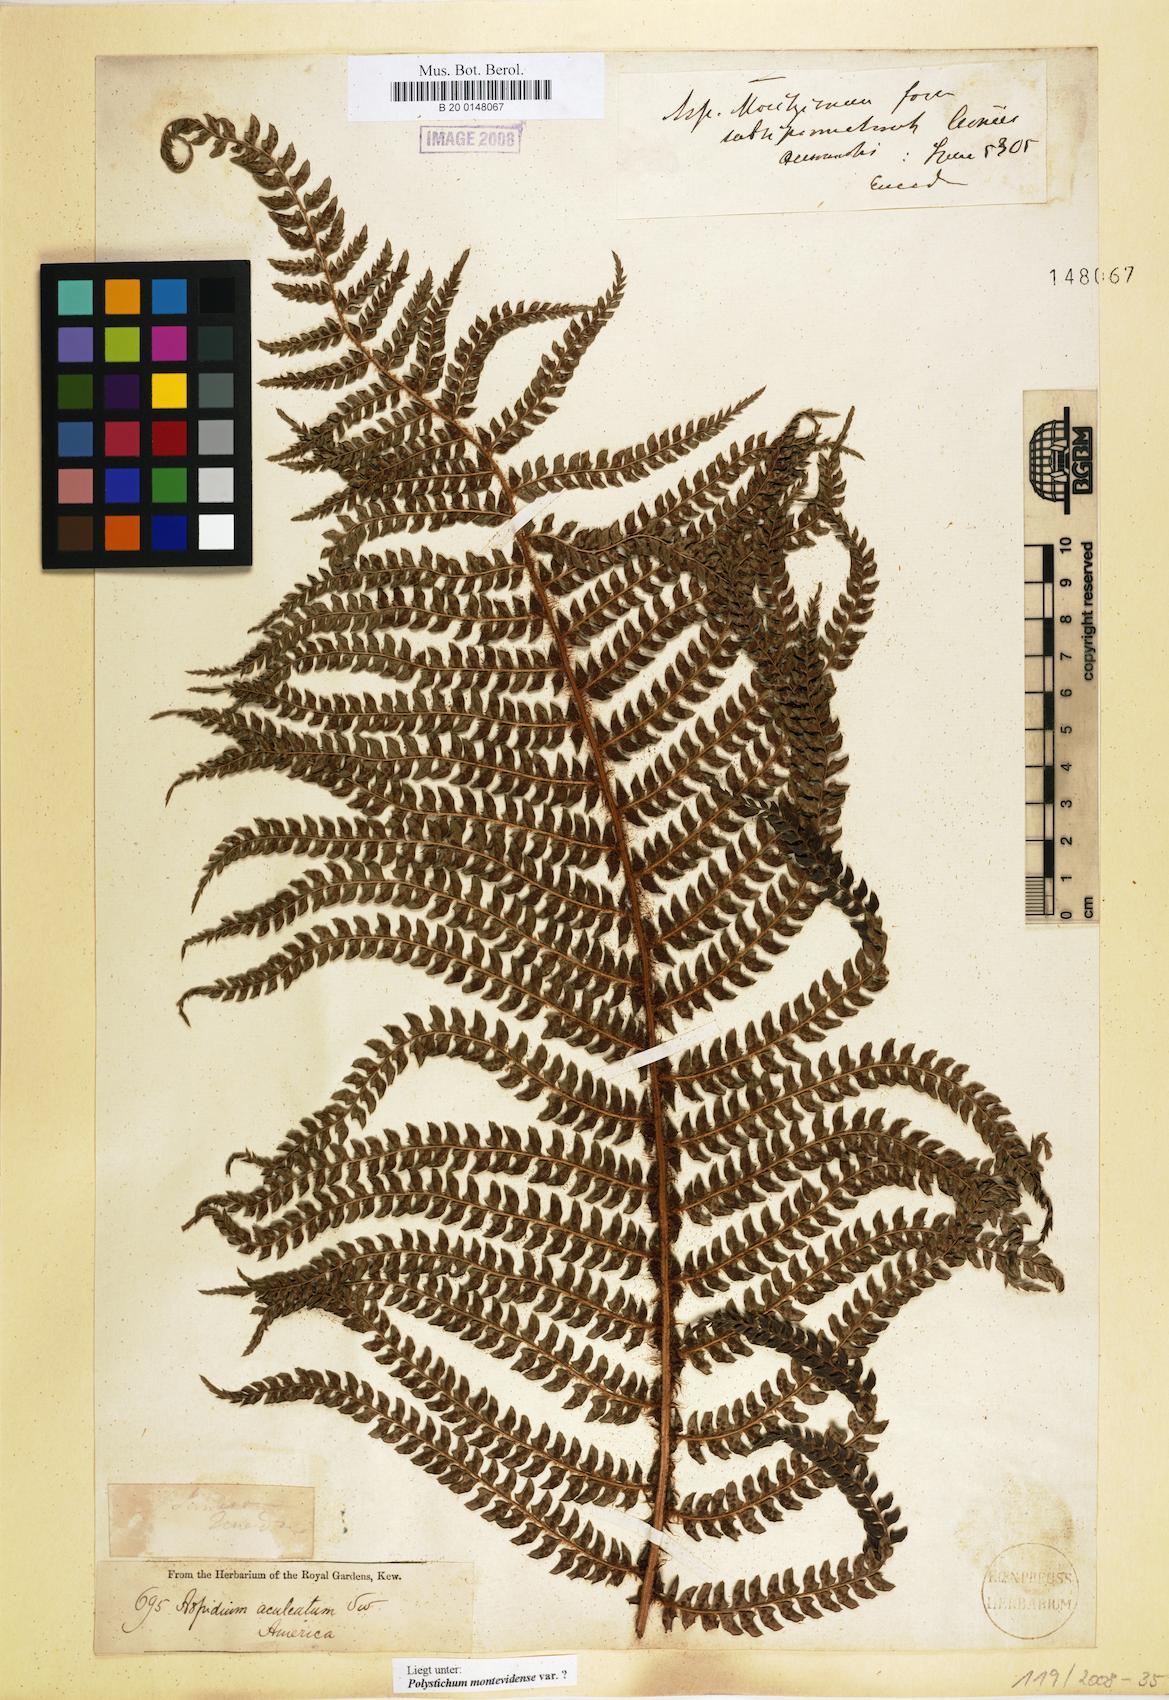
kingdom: Plantae
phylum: Tracheophyta
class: Polypodiopsida
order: Polypodiales
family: Dryopteridaceae
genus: Polystichum
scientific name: Polystichum montevidense
